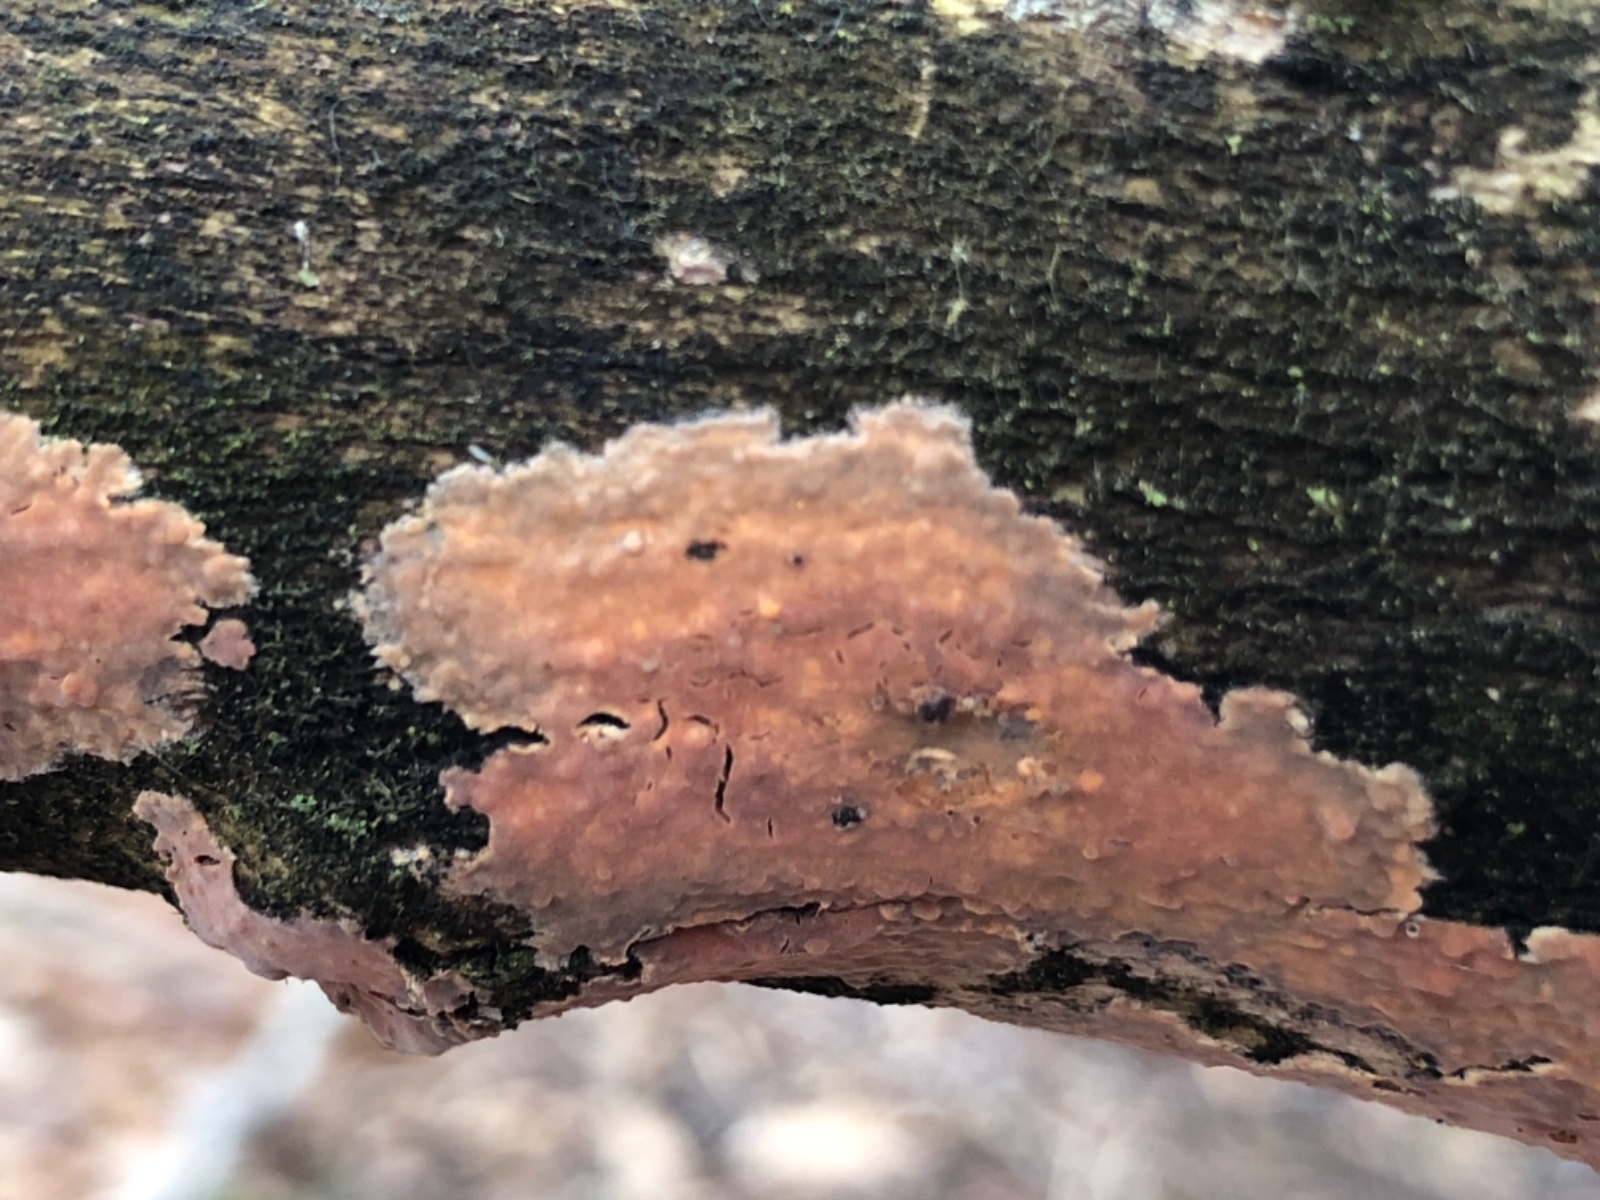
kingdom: Fungi
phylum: Basidiomycota
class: Agaricomycetes
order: Russulales
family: Peniophoraceae
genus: Peniophora
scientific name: Peniophora incarnata
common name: laksefarvet voksskind
